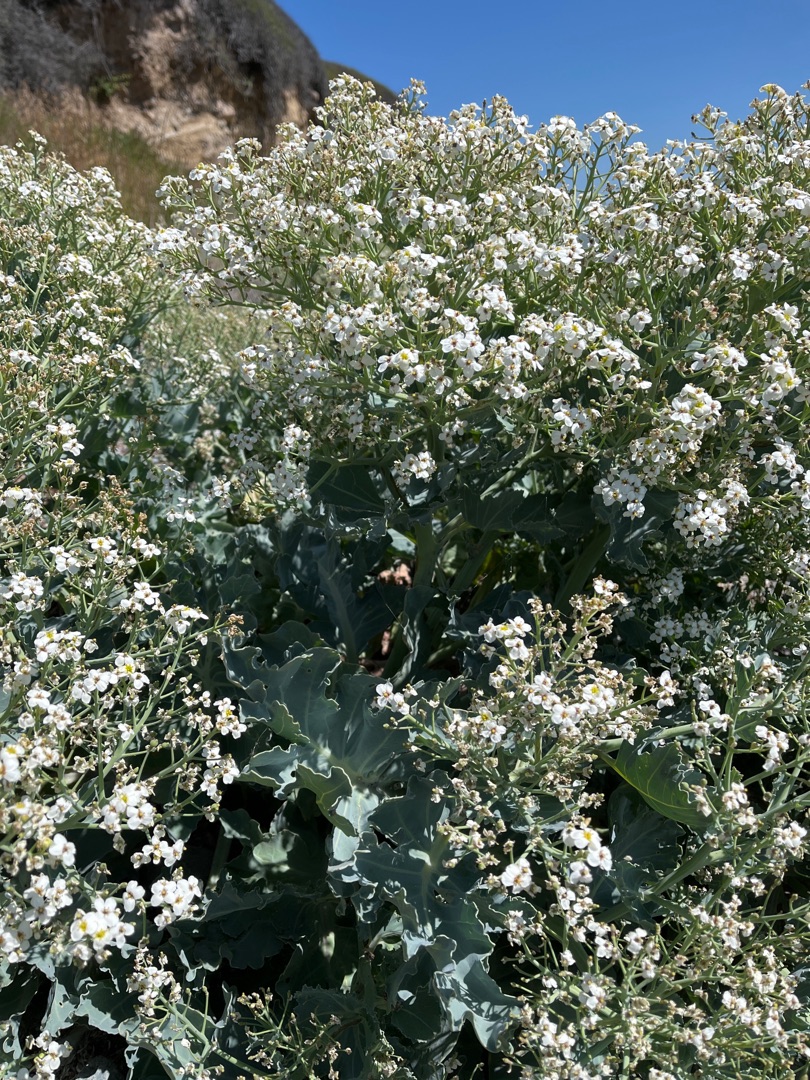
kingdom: Plantae
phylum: Tracheophyta
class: Magnoliopsida
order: Brassicales
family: Brassicaceae
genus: Crambe
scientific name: Crambe maritima
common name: Strandkål
